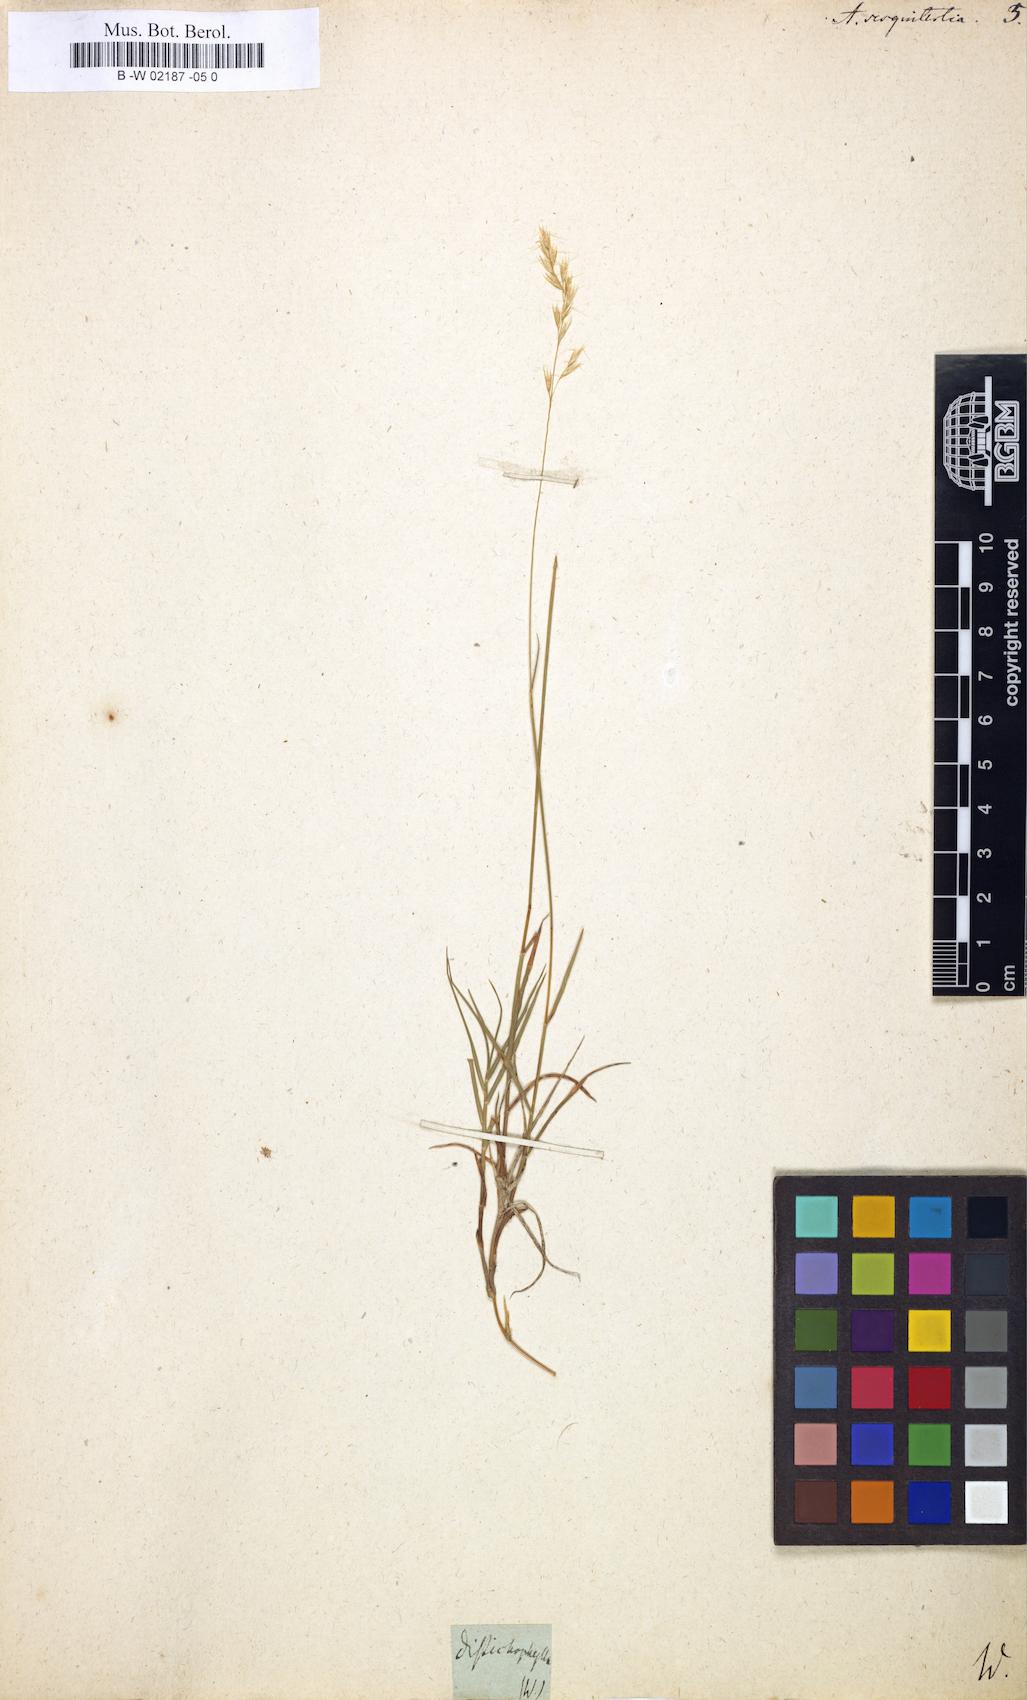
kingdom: Plantae
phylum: Tracheophyta
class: Liliopsida
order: Poales
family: Poaceae
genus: Avenula
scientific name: Avenula pubescens
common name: Downy alpine oatgrass
